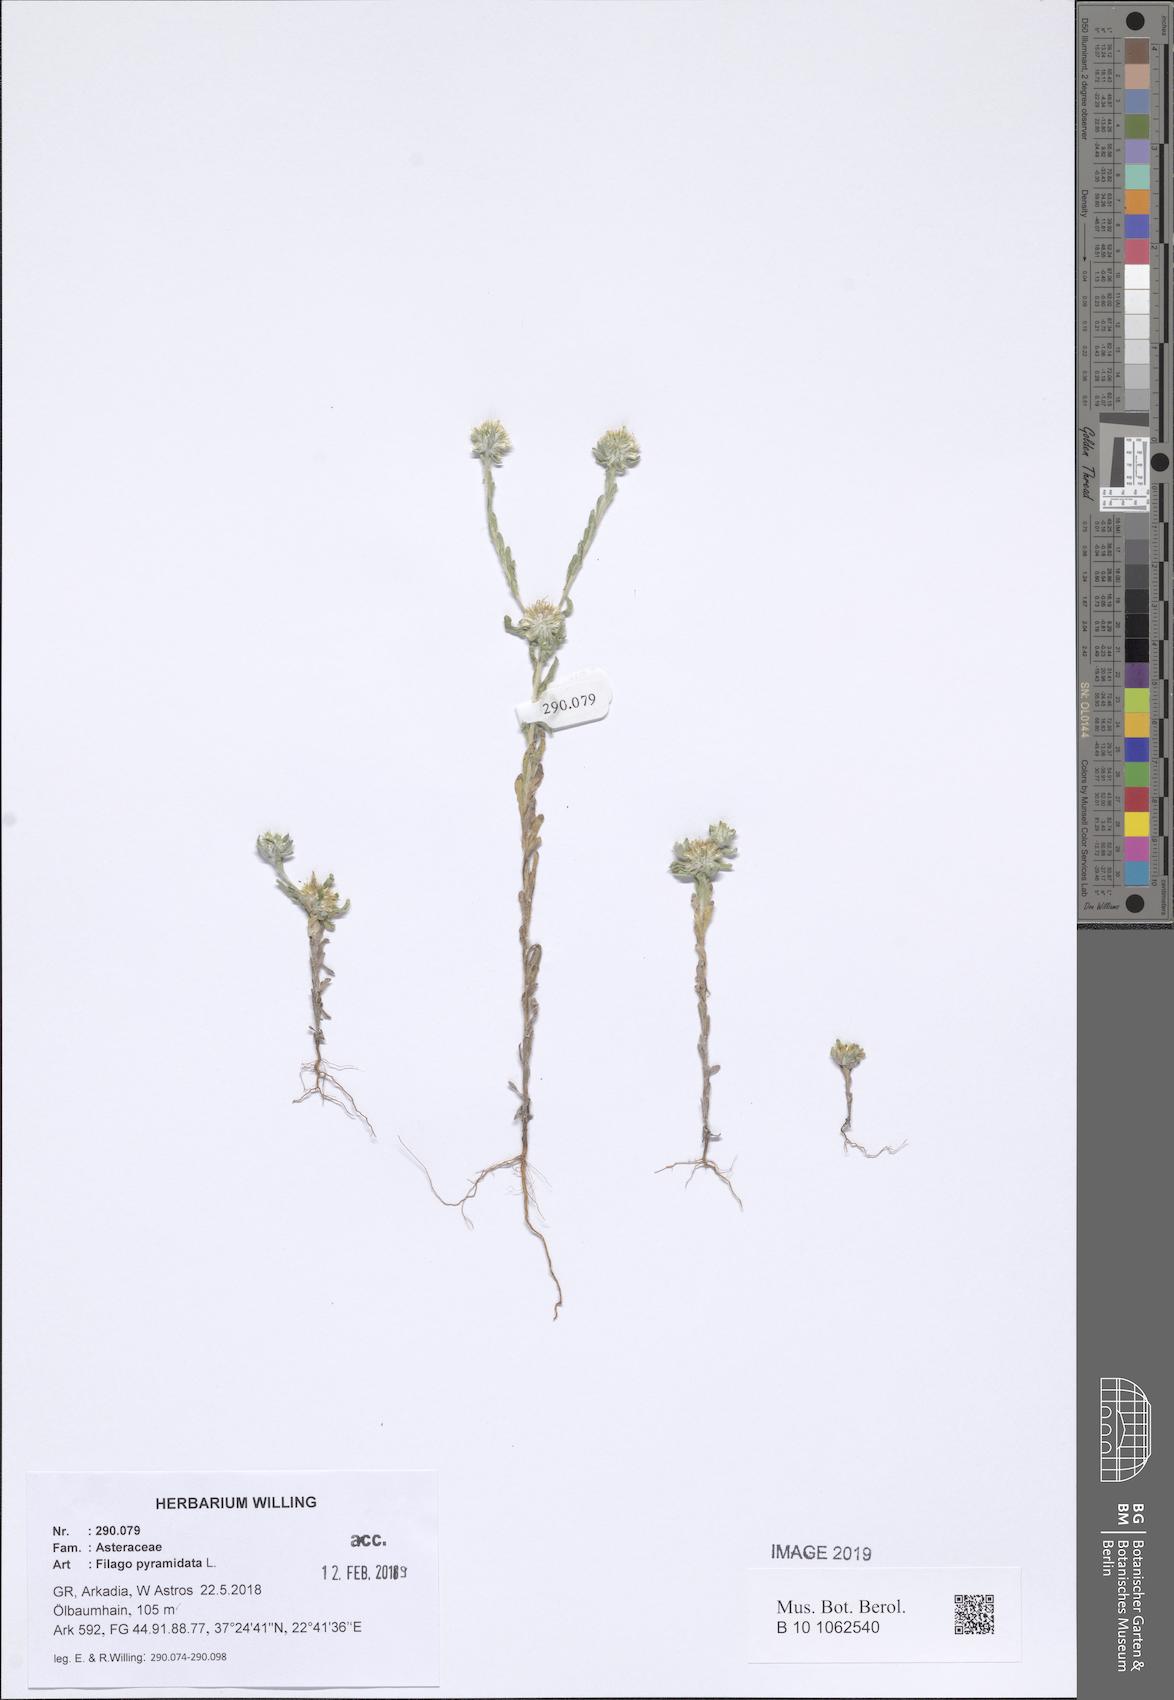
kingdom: Plantae
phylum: Tracheophyta
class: Magnoliopsida
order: Asterales
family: Asteraceae
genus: Filago
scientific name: Filago pyramidata
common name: Broad-leaved cudweed
